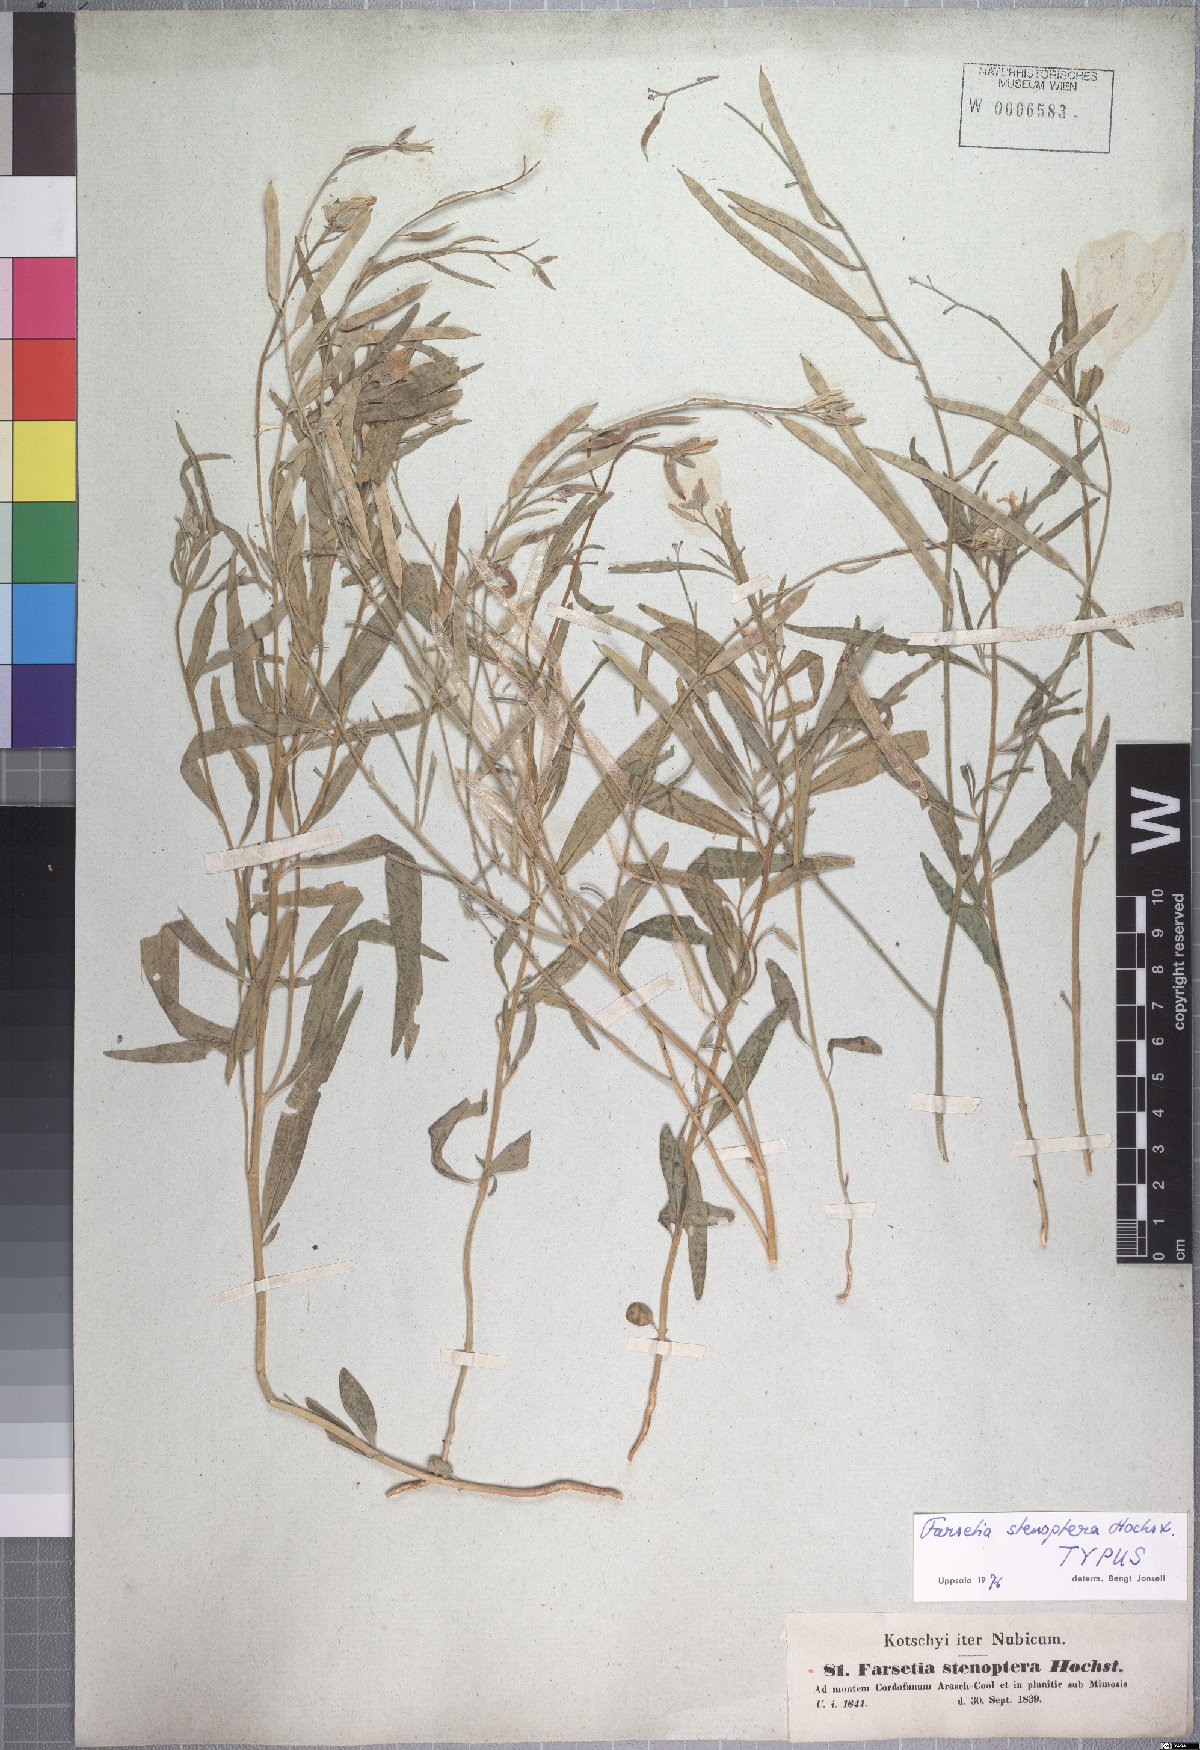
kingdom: Plantae
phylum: Tracheophyta
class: Magnoliopsida
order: Brassicales
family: Brassicaceae
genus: Farsetia
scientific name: Farsetia stenoptera
